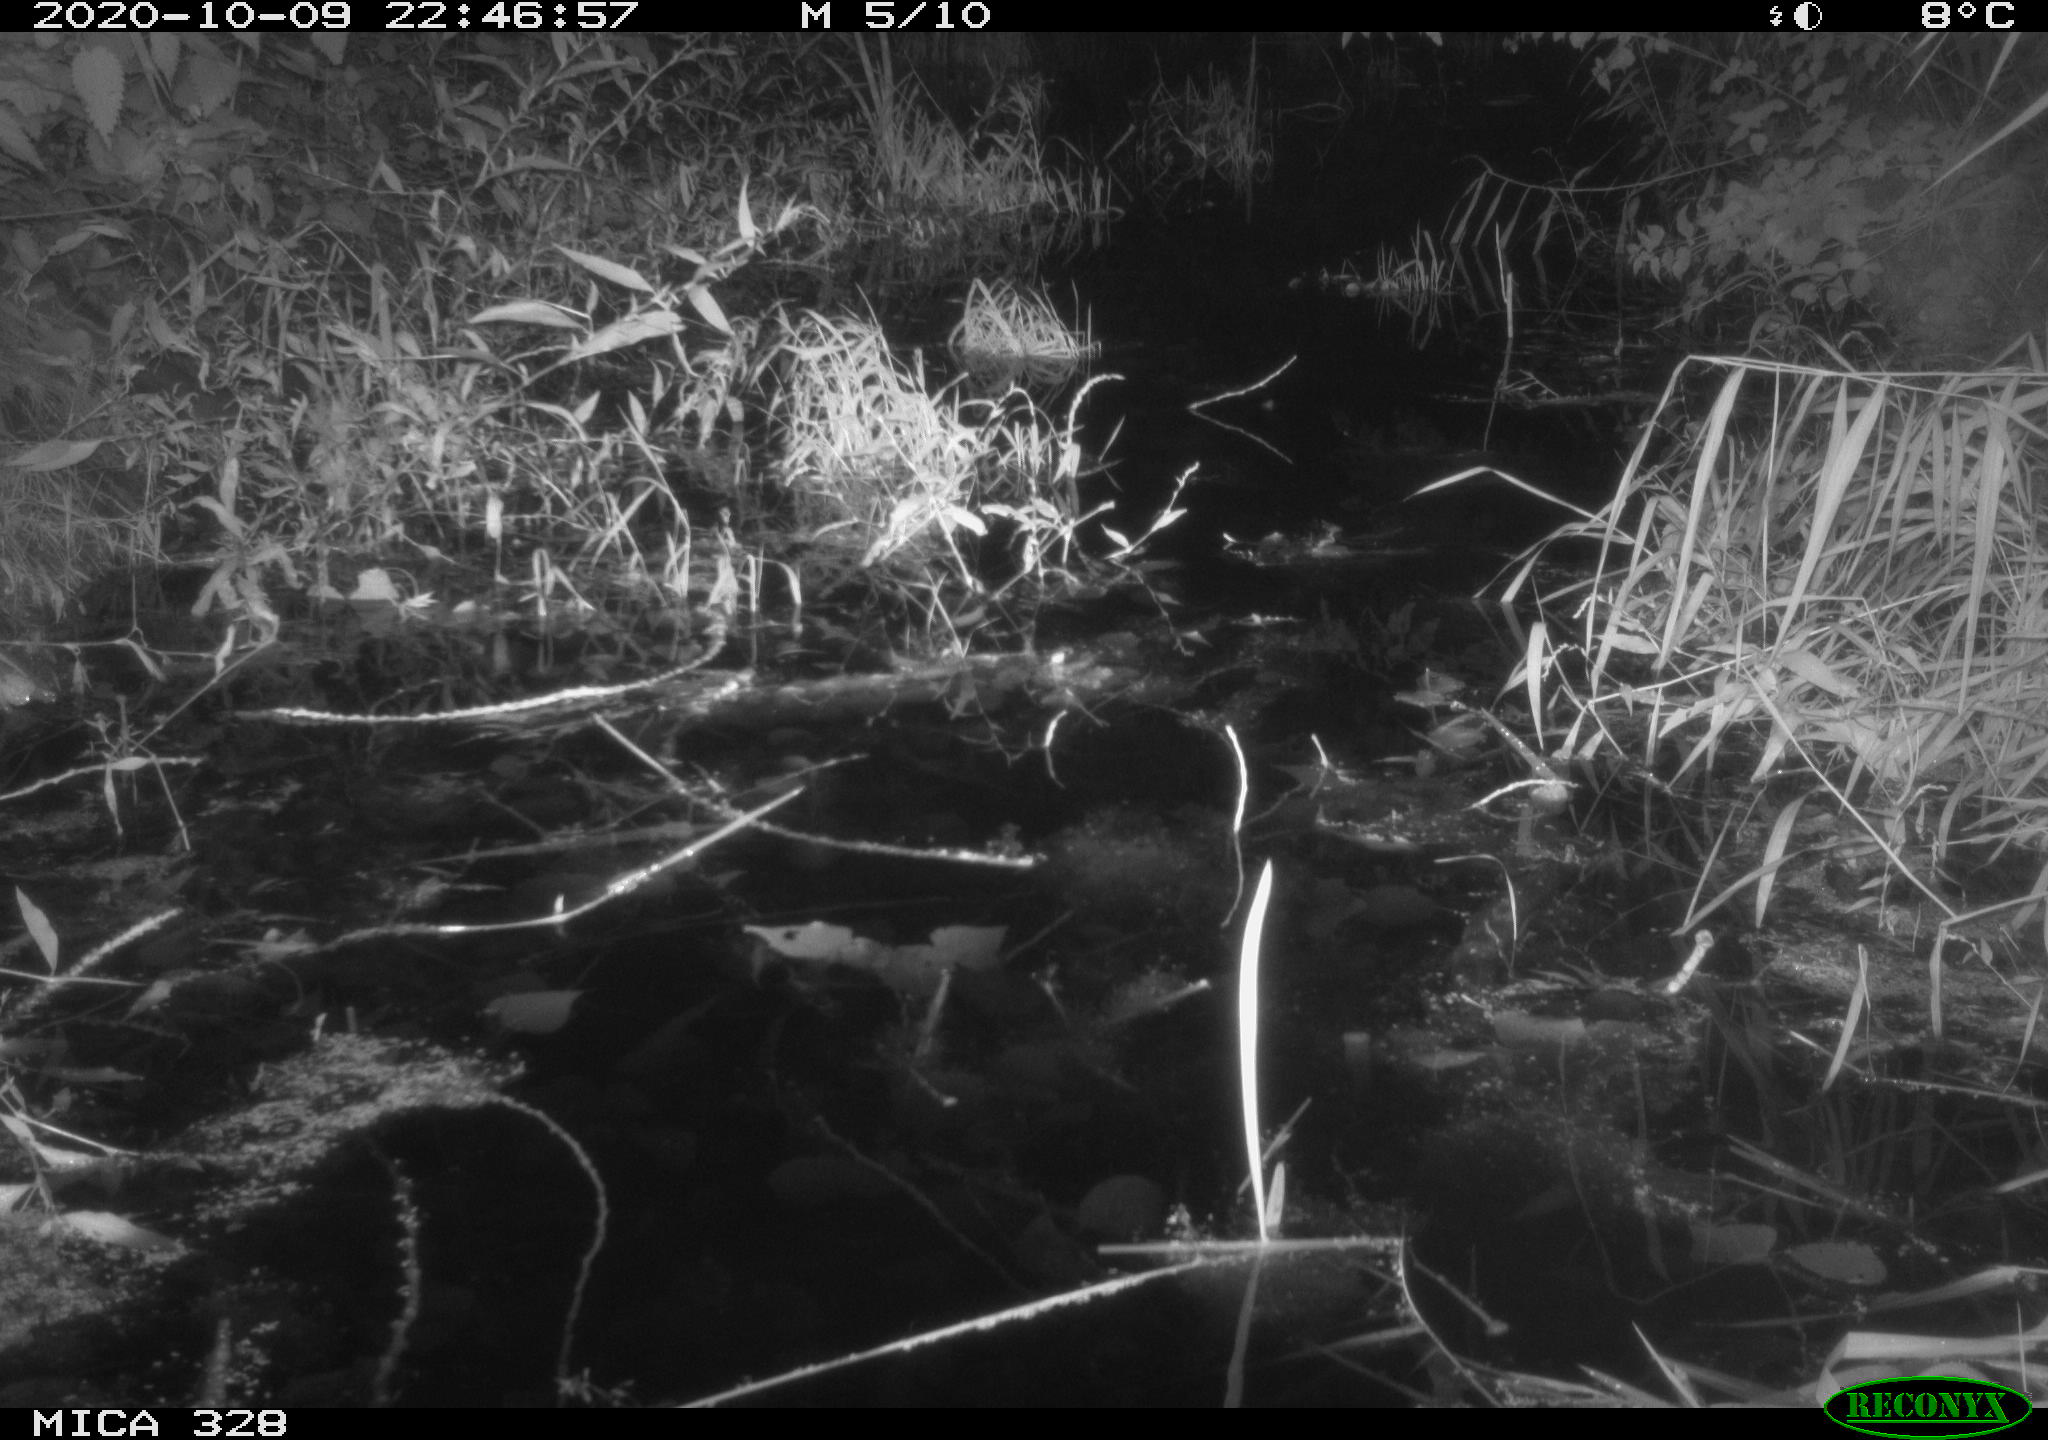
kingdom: Animalia
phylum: Chordata
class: Mammalia
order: Rodentia
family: Muridae
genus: Rattus
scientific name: Rattus norvegicus
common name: Brown rat
